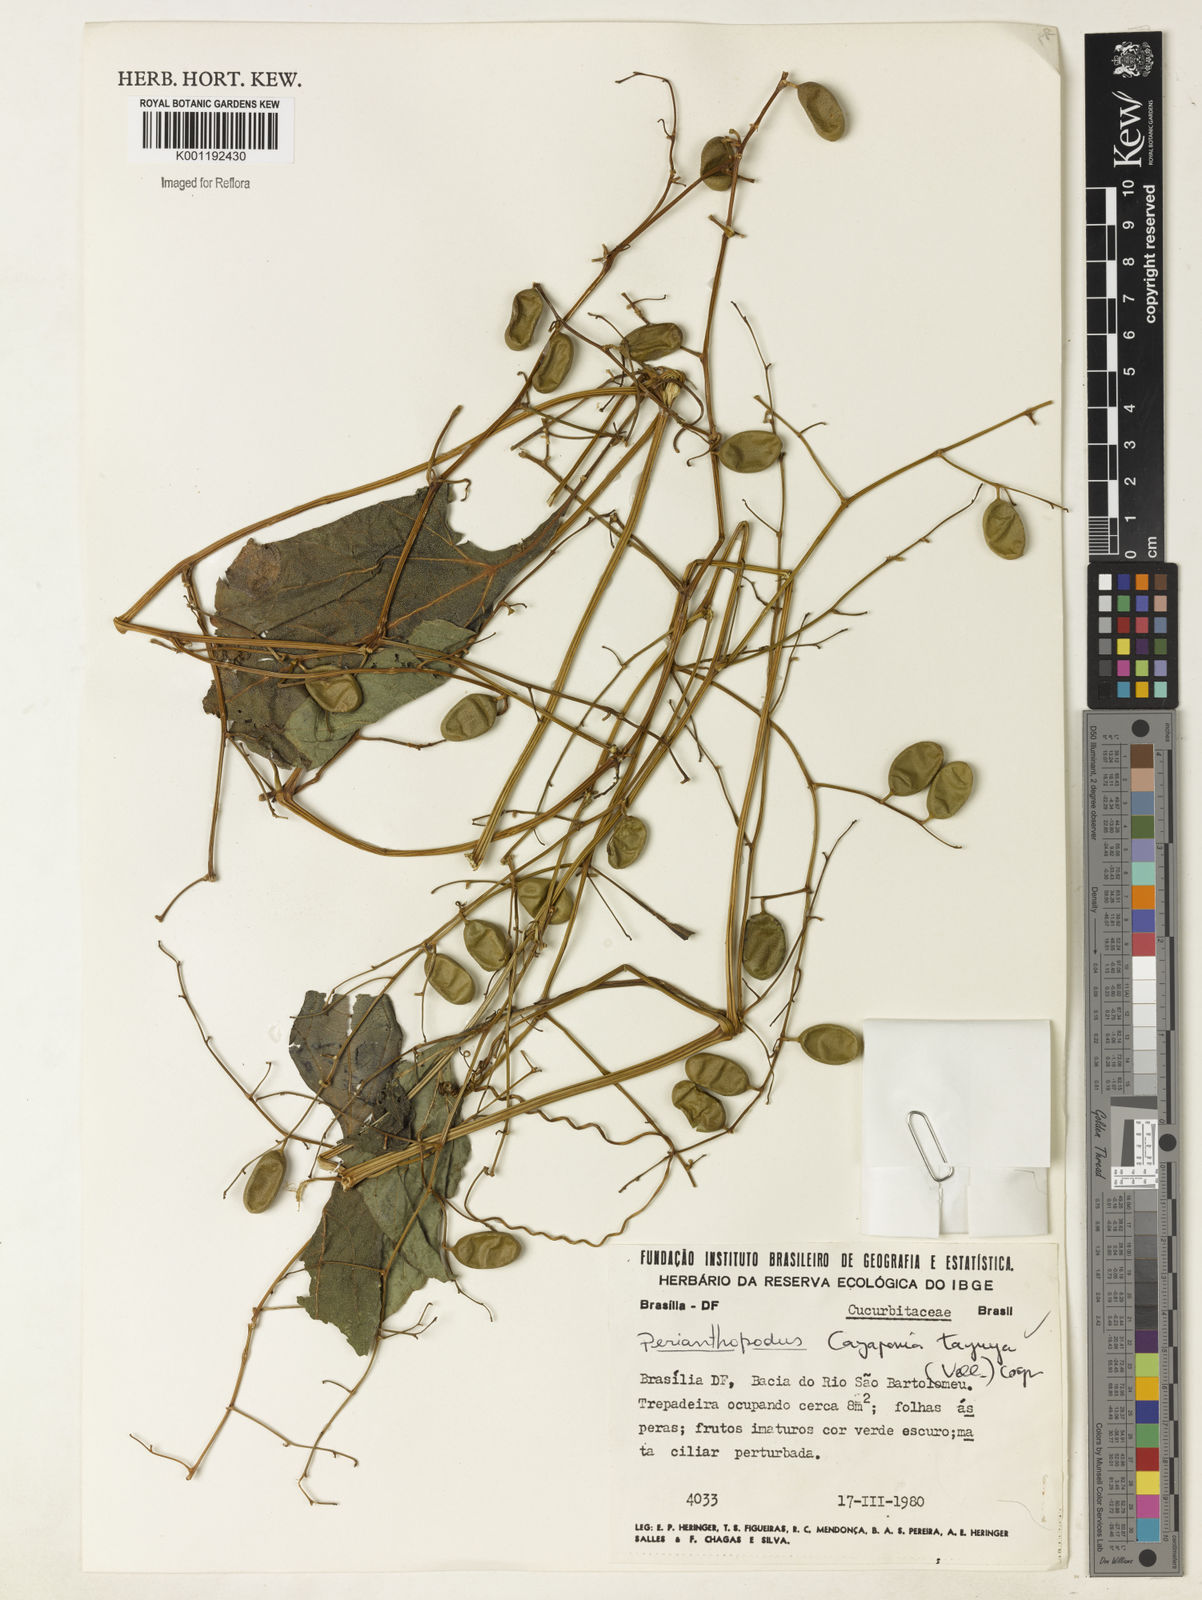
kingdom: Plantae
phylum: Tracheophyta
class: Magnoliopsida
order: Cucurbitales
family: Cucurbitaceae
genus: Cayaponia
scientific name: Cayaponia tayuya
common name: Tayuya
